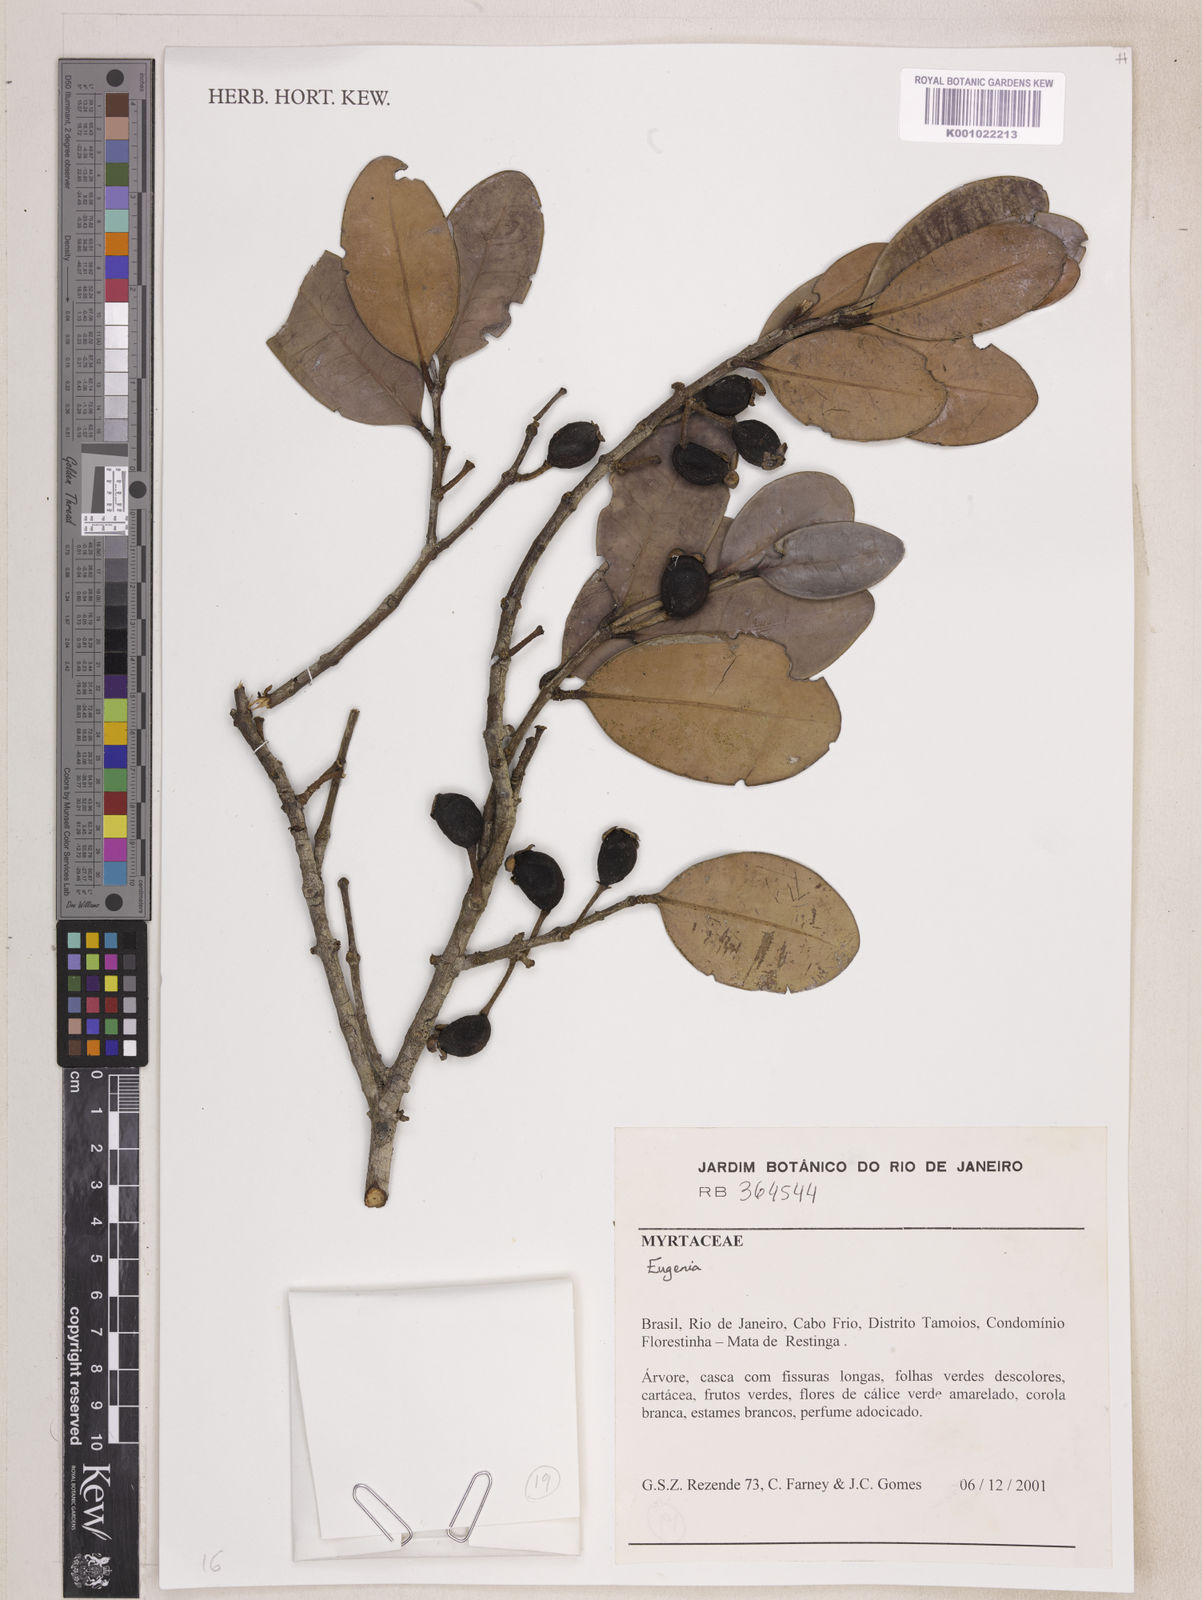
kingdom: Plantae
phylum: Tracheophyta
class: Magnoliopsida
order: Myrtales
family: Myrtaceae
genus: Eugenia
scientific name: Eugenia kuekii
